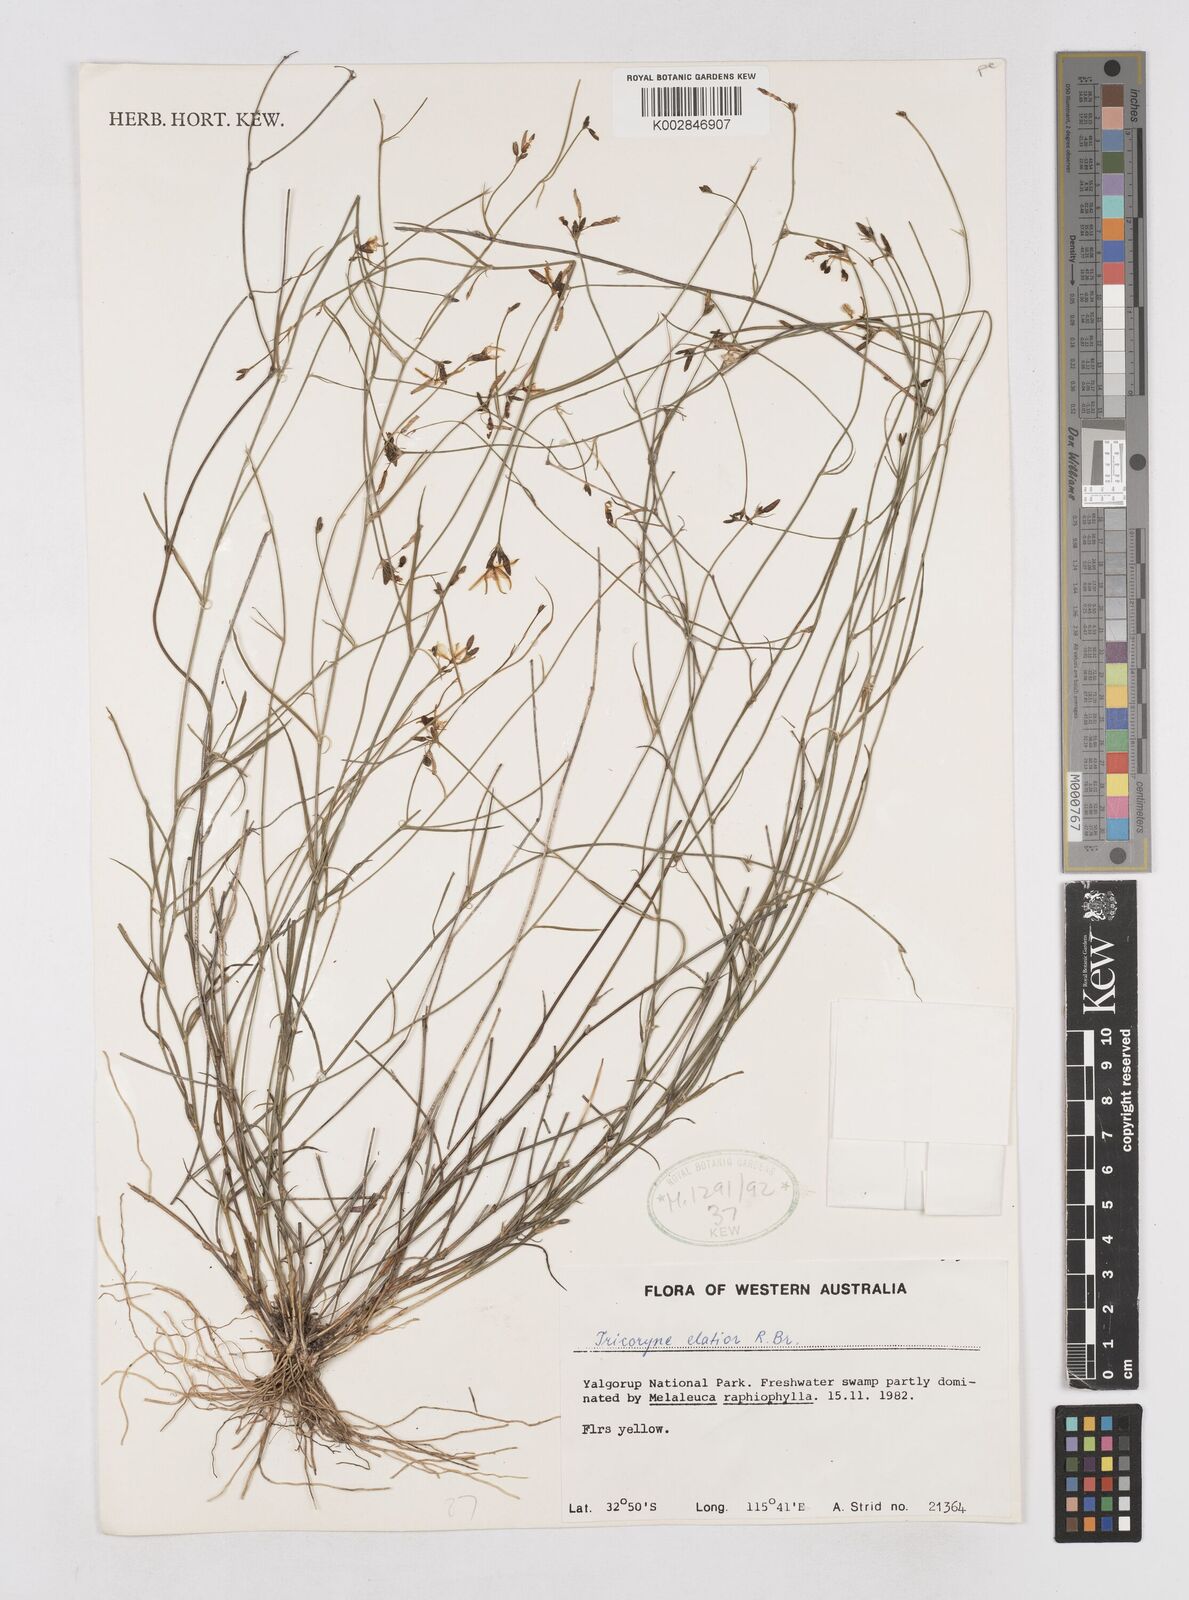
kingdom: Plantae
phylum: Tracheophyta
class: Liliopsida
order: Asparagales
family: Asphodelaceae
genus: Tricoryne
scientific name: Tricoryne elatior
